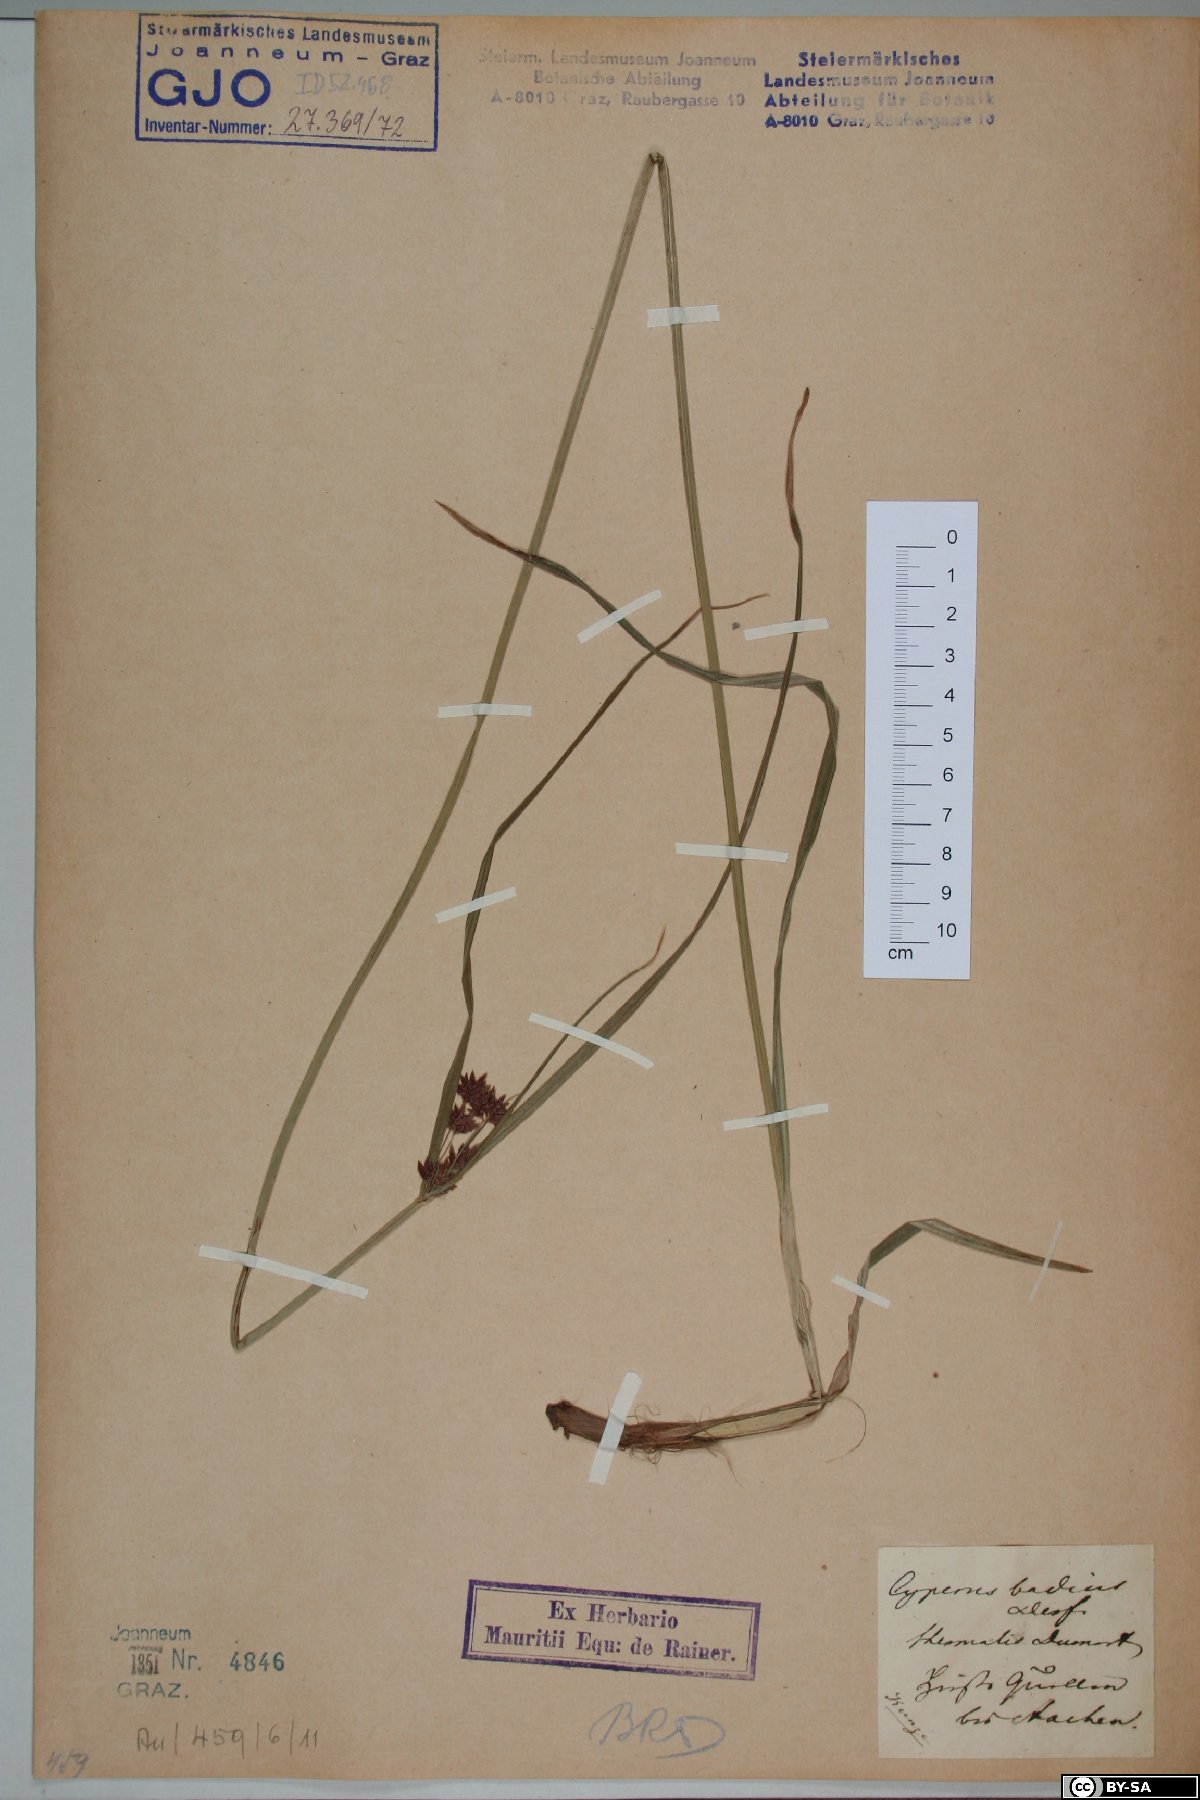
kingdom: Plantae
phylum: Tracheophyta
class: Liliopsida
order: Poales
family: Cyperaceae
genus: Cyperus
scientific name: Cyperus longus
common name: Galingale
